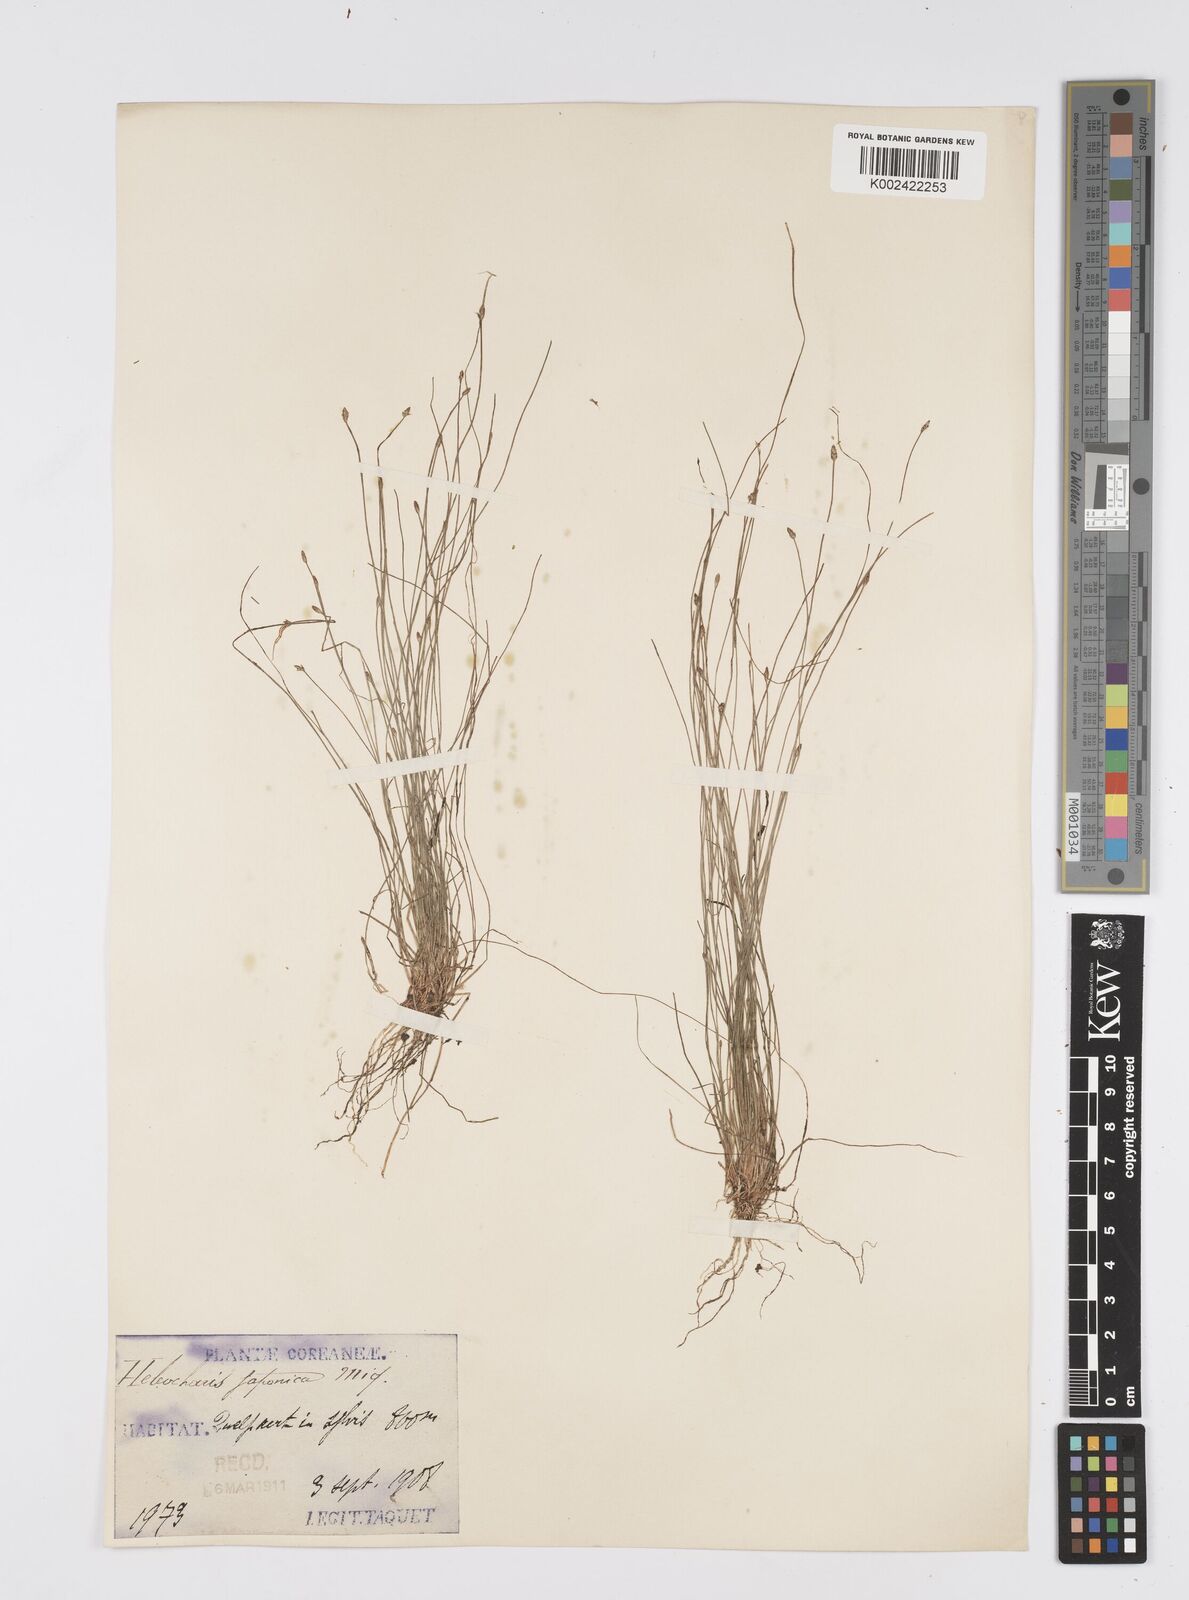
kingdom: Plantae
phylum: Tracheophyta
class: Liliopsida
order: Poales
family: Cyperaceae
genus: Eleocharis
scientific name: Eleocharis pellucida
